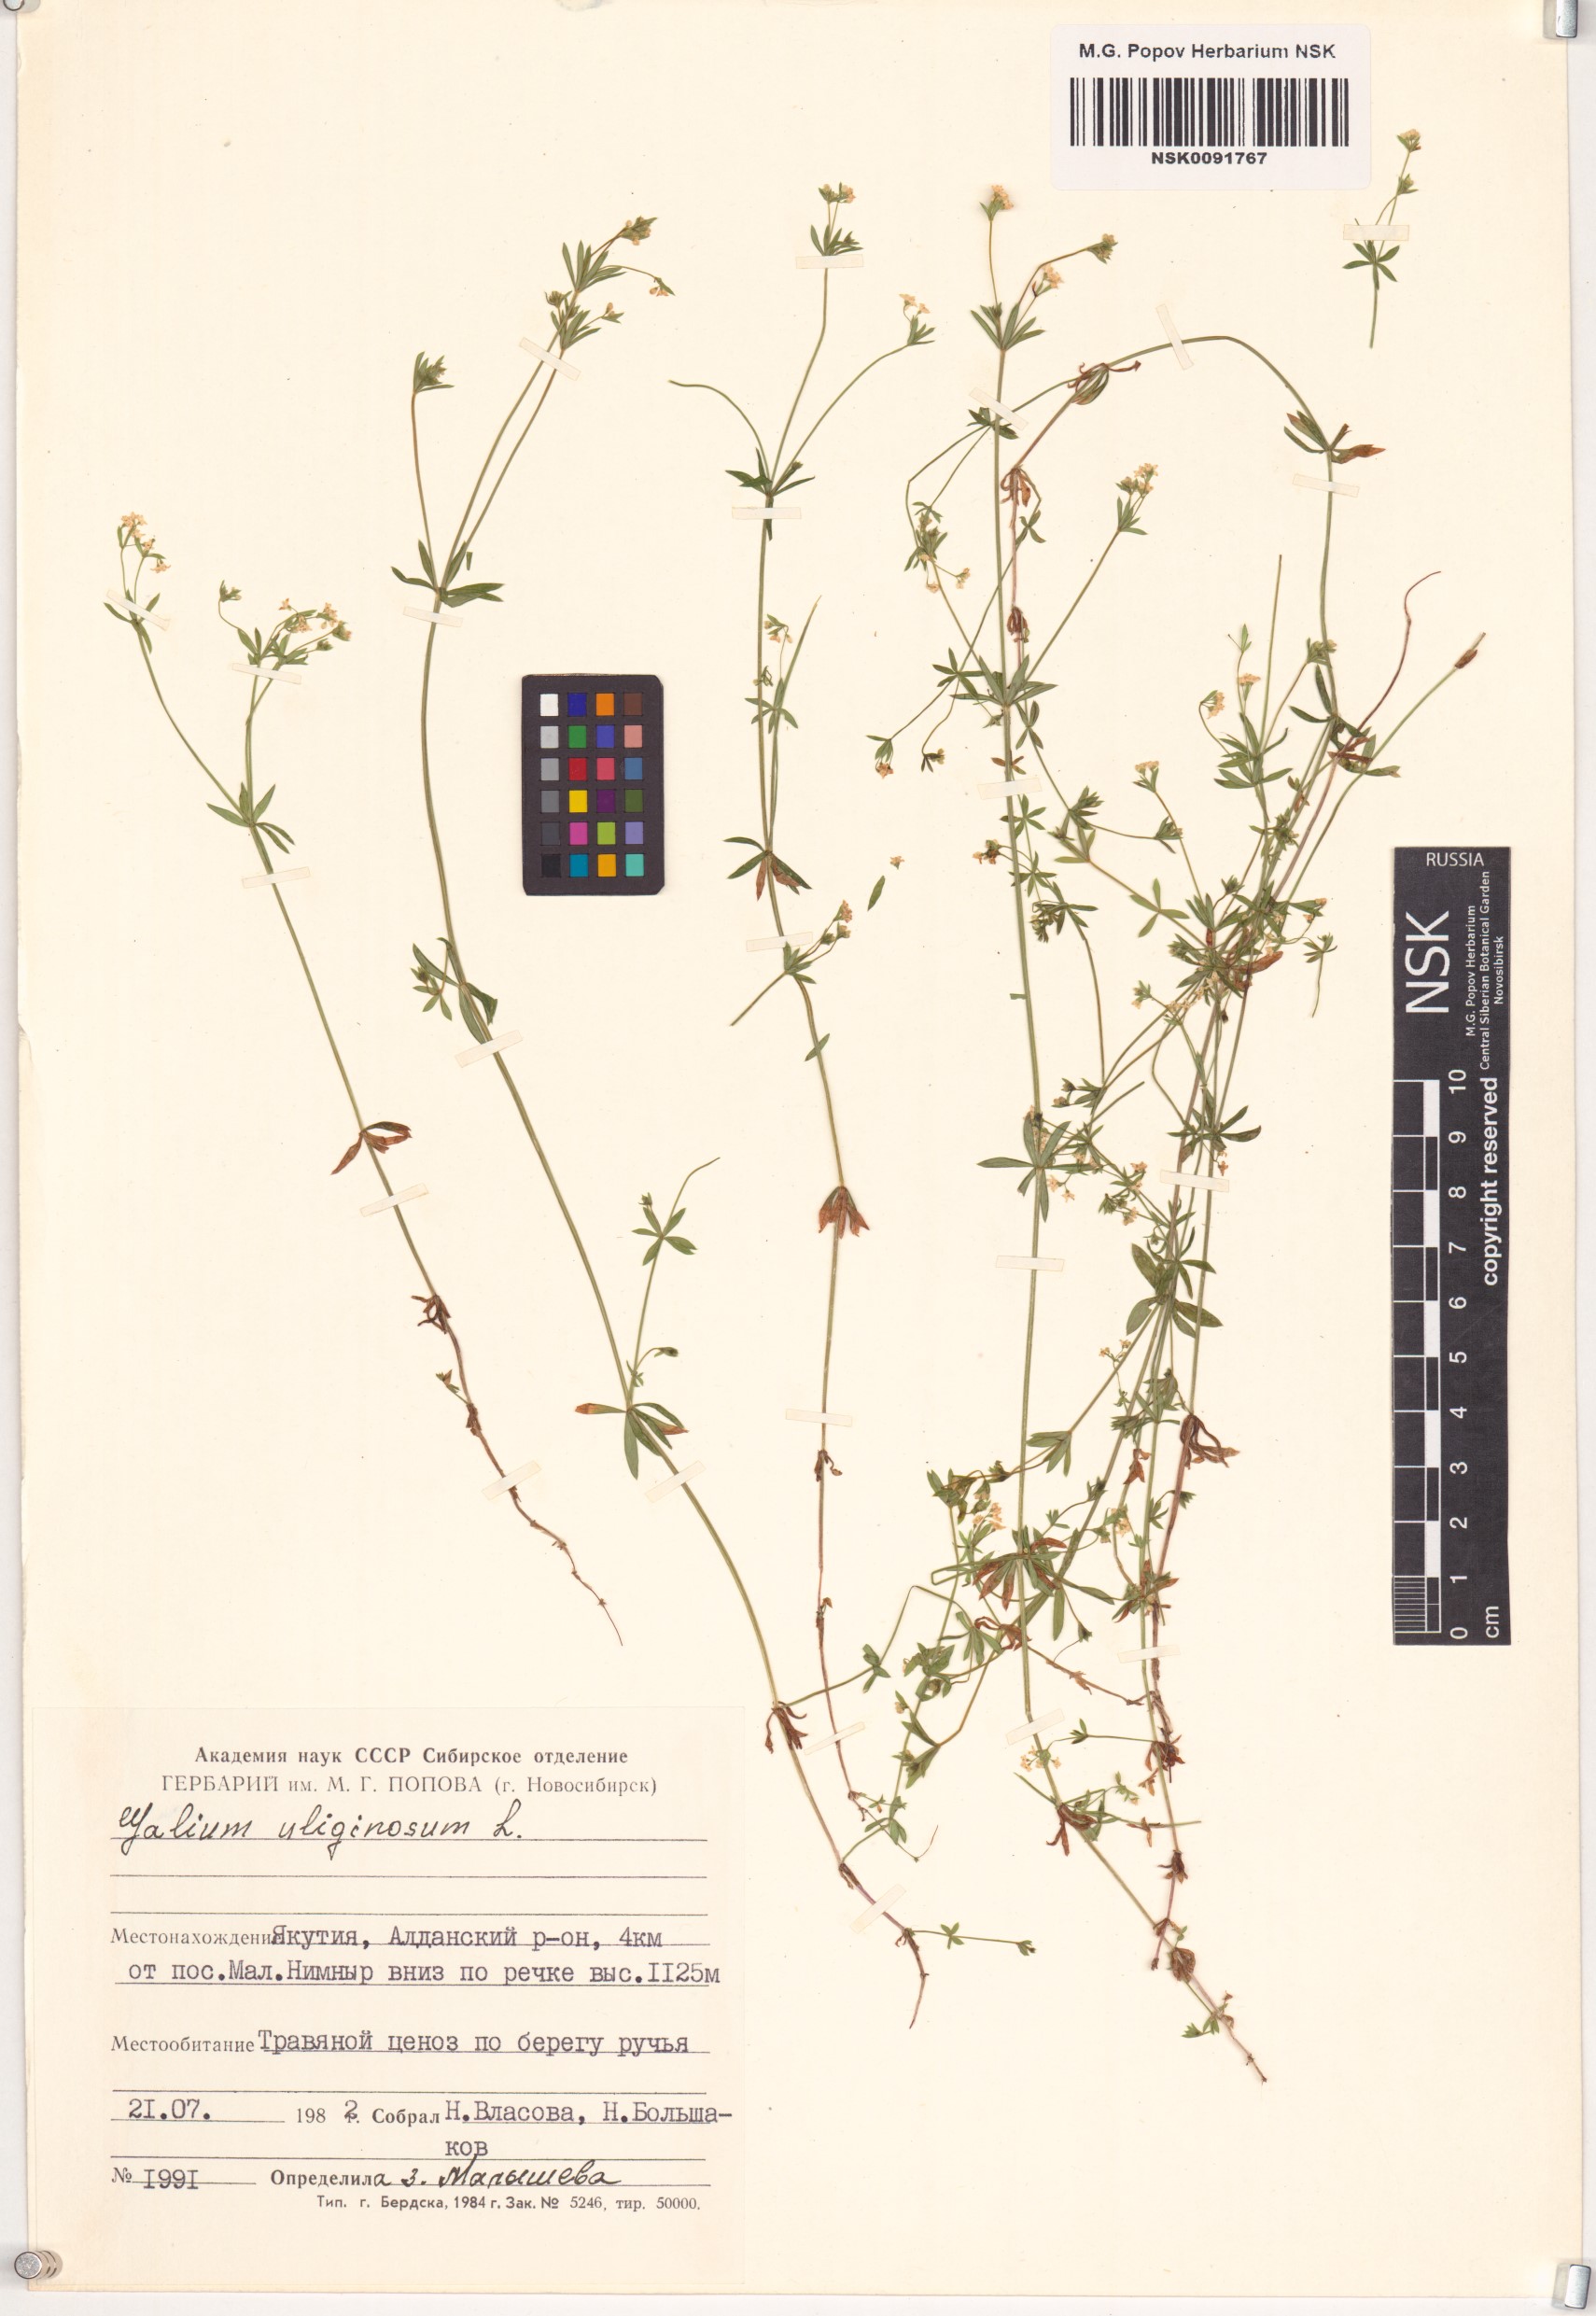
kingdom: Plantae
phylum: Tracheophyta
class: Magnoliopsida
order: Gentianales
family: Rubiaceae
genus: Galium
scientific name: Galium uliginosum
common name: Fen bedstraw
